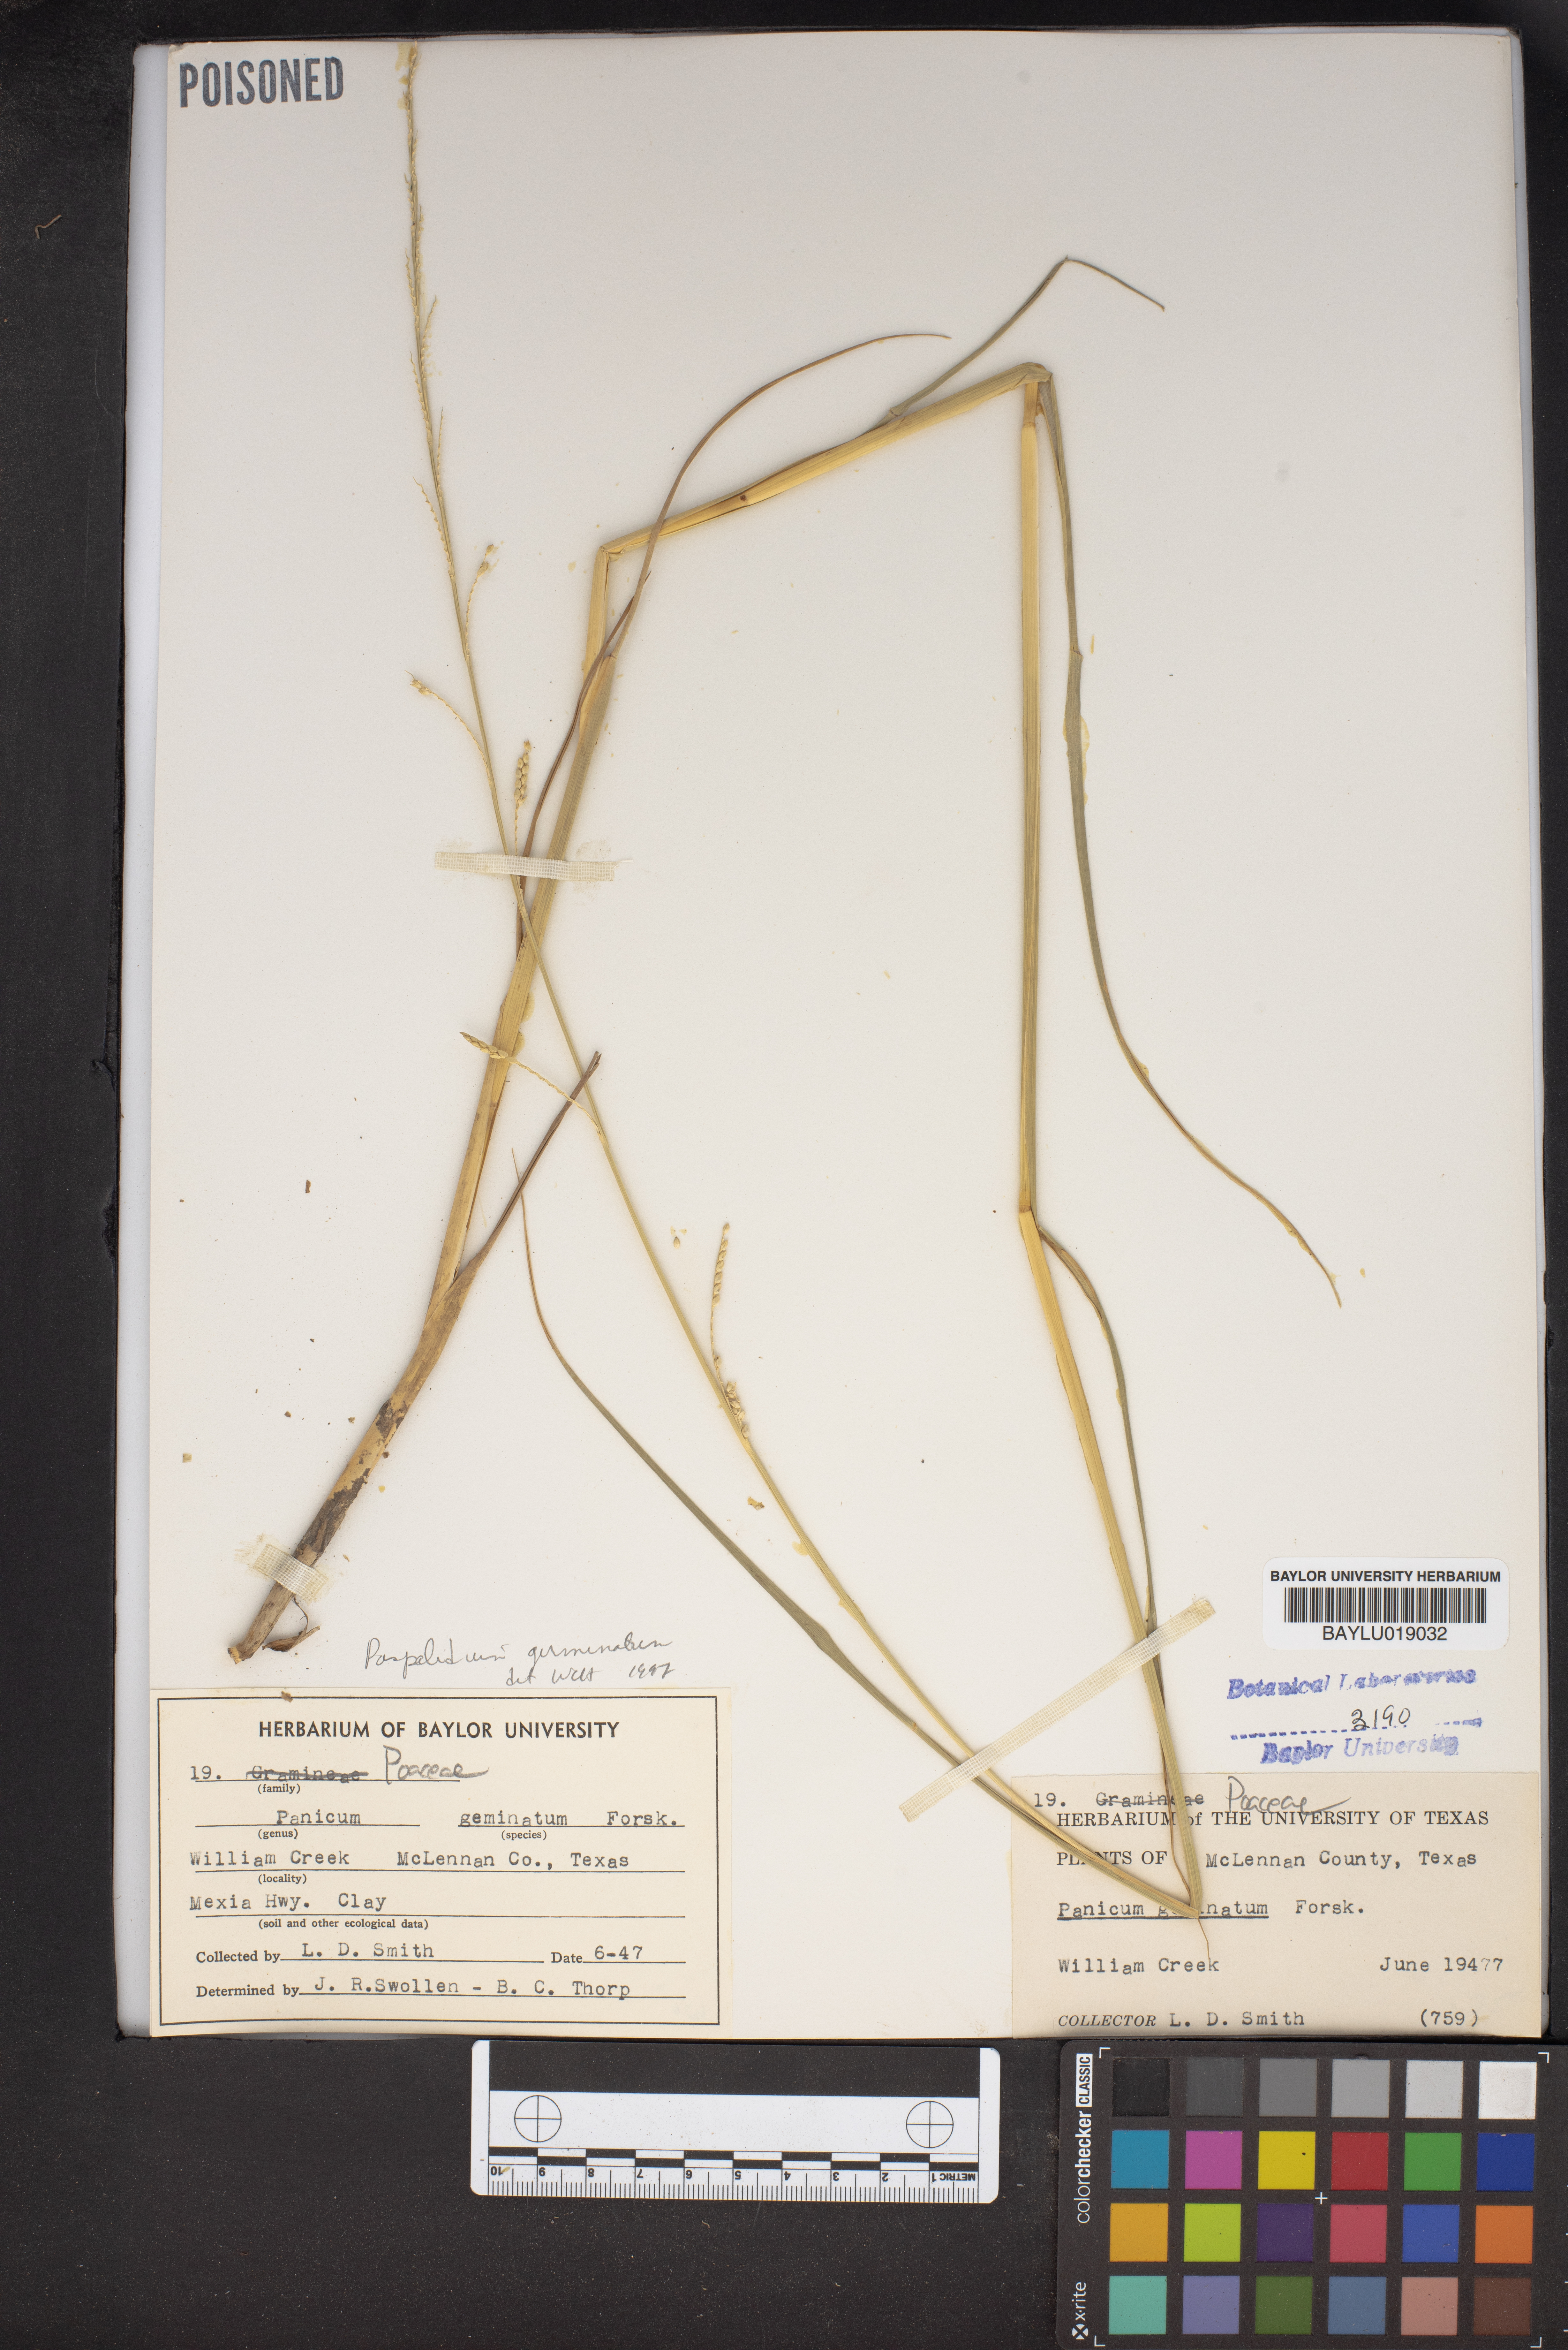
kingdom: Plantae
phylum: Tracheophyta
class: Liliopsida
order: Poales
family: Poaceae
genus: Setaria
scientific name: Setaria geminata
